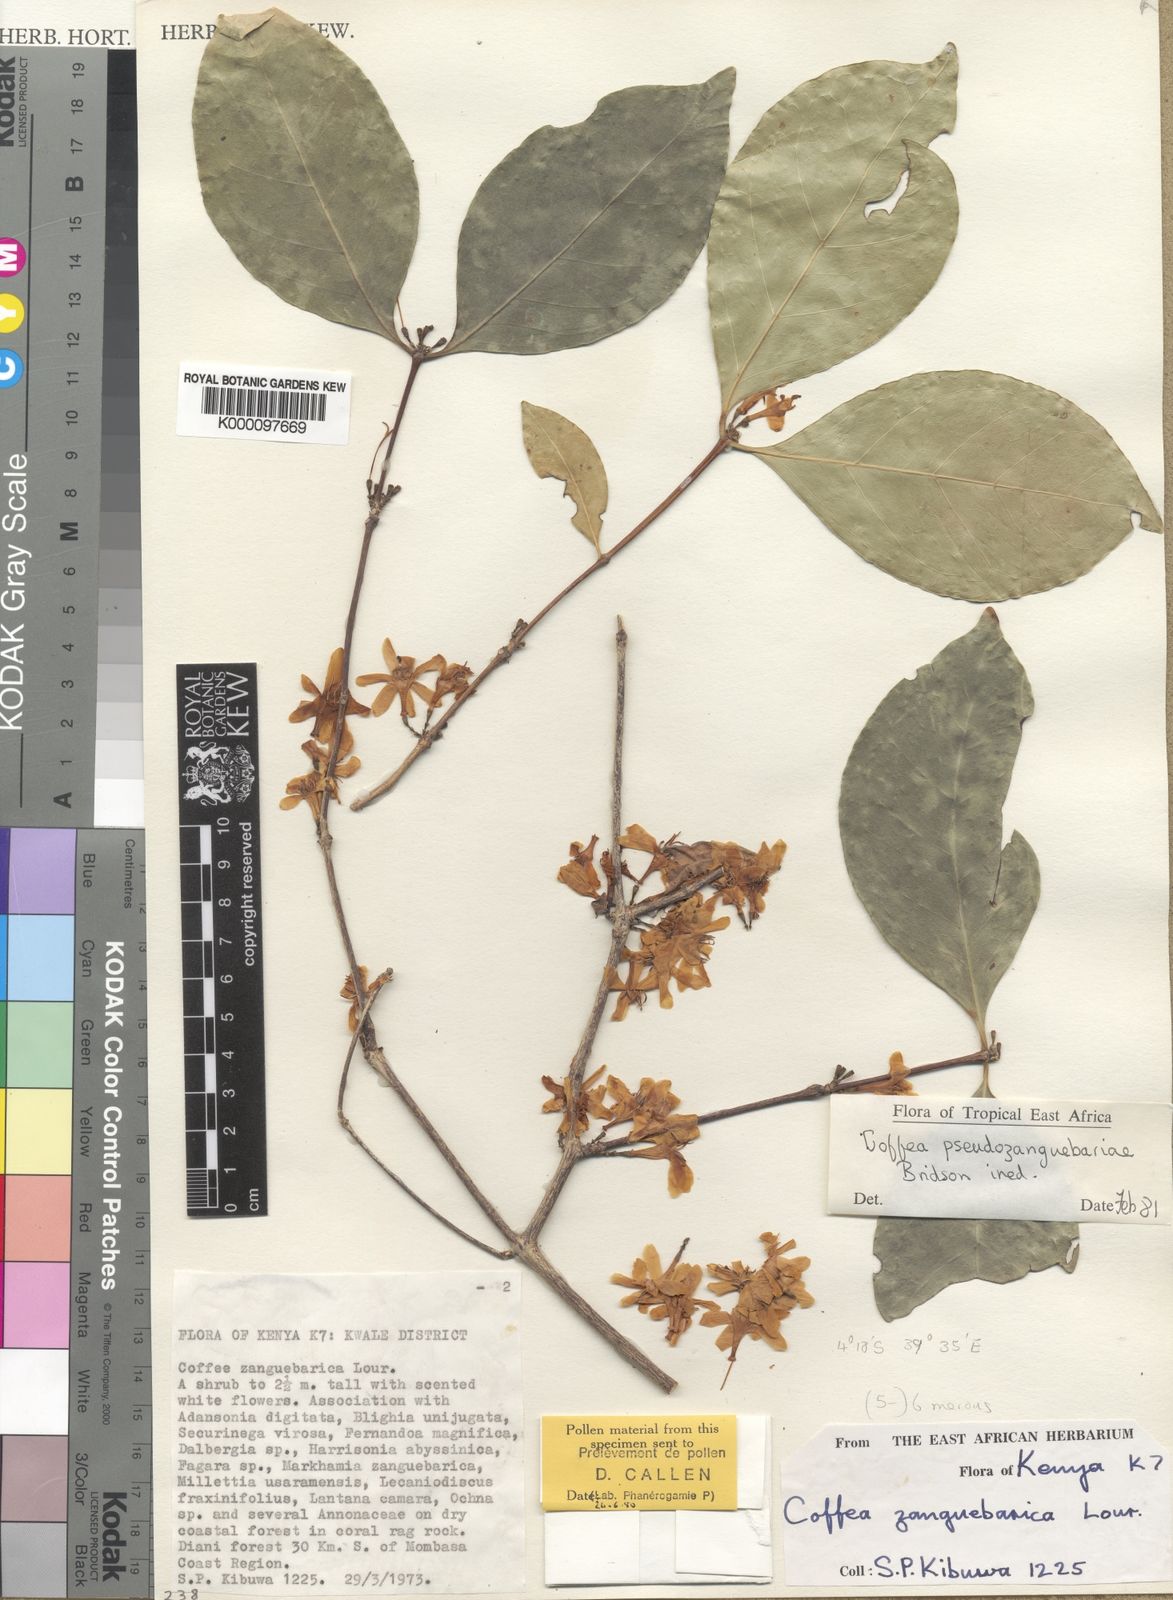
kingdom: Plantae
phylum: Tracheophyta
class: Magnoliopsida
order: Gentianales
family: Rubiaceae
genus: Coffea
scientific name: Coffea pseudozanguebariae
